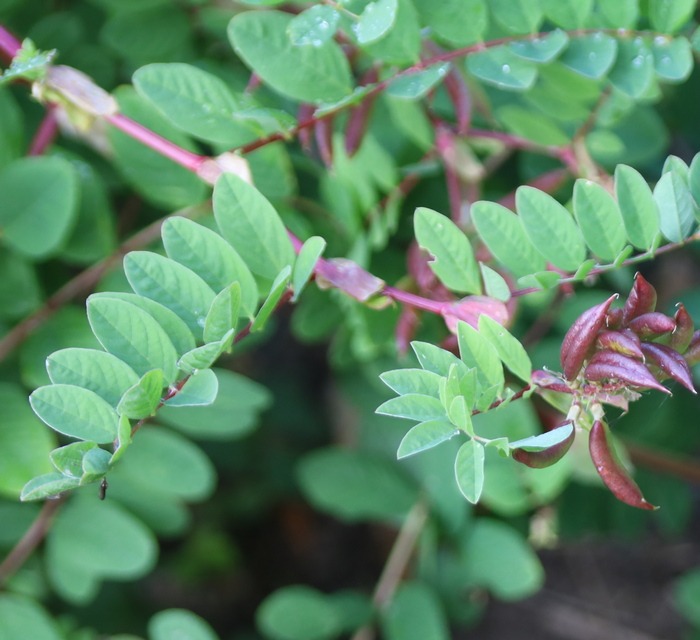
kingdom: Plantae
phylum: Tracheophyta
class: Magnoliopsida
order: Fabales
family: Fabaceae
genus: Astragalus
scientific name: Astragalus glycyphyllos
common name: Sød astragel
